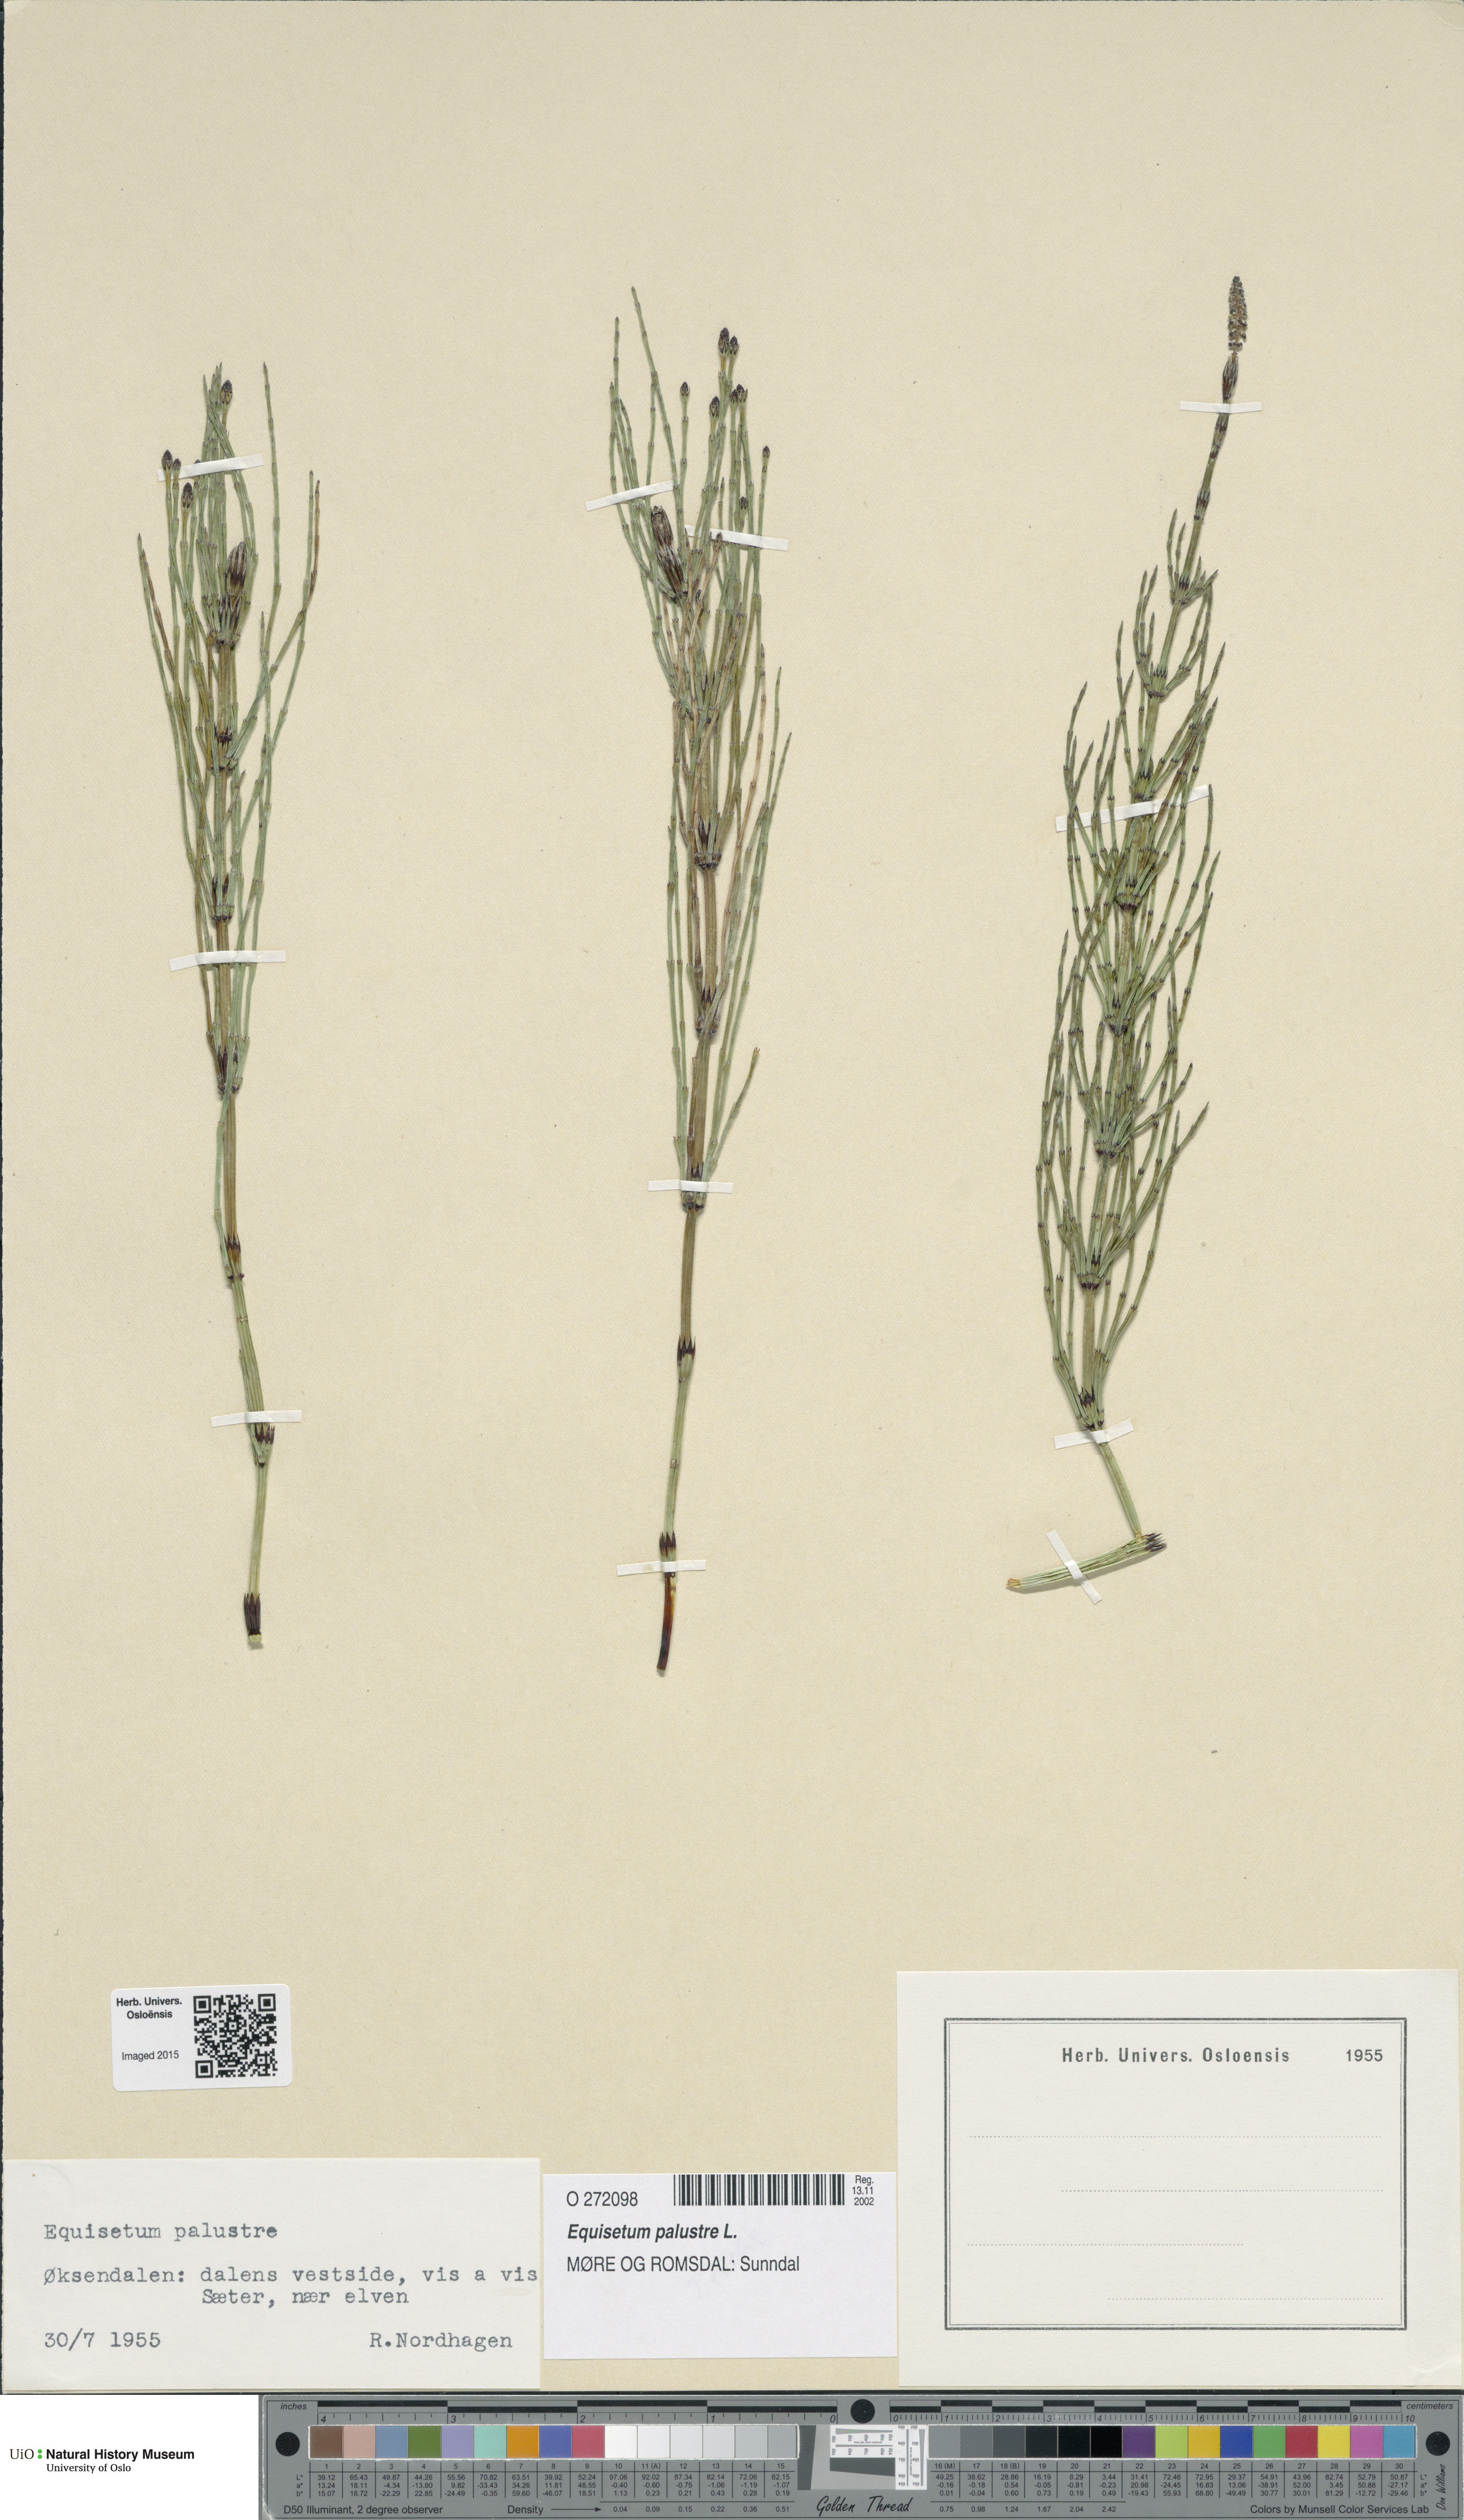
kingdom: Plantae
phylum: Tracheophyta
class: Polypodiopsida
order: Equisetales
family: Equisetaceae
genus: Equisetum
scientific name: Equisetum palustre
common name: Marsh horsetail
